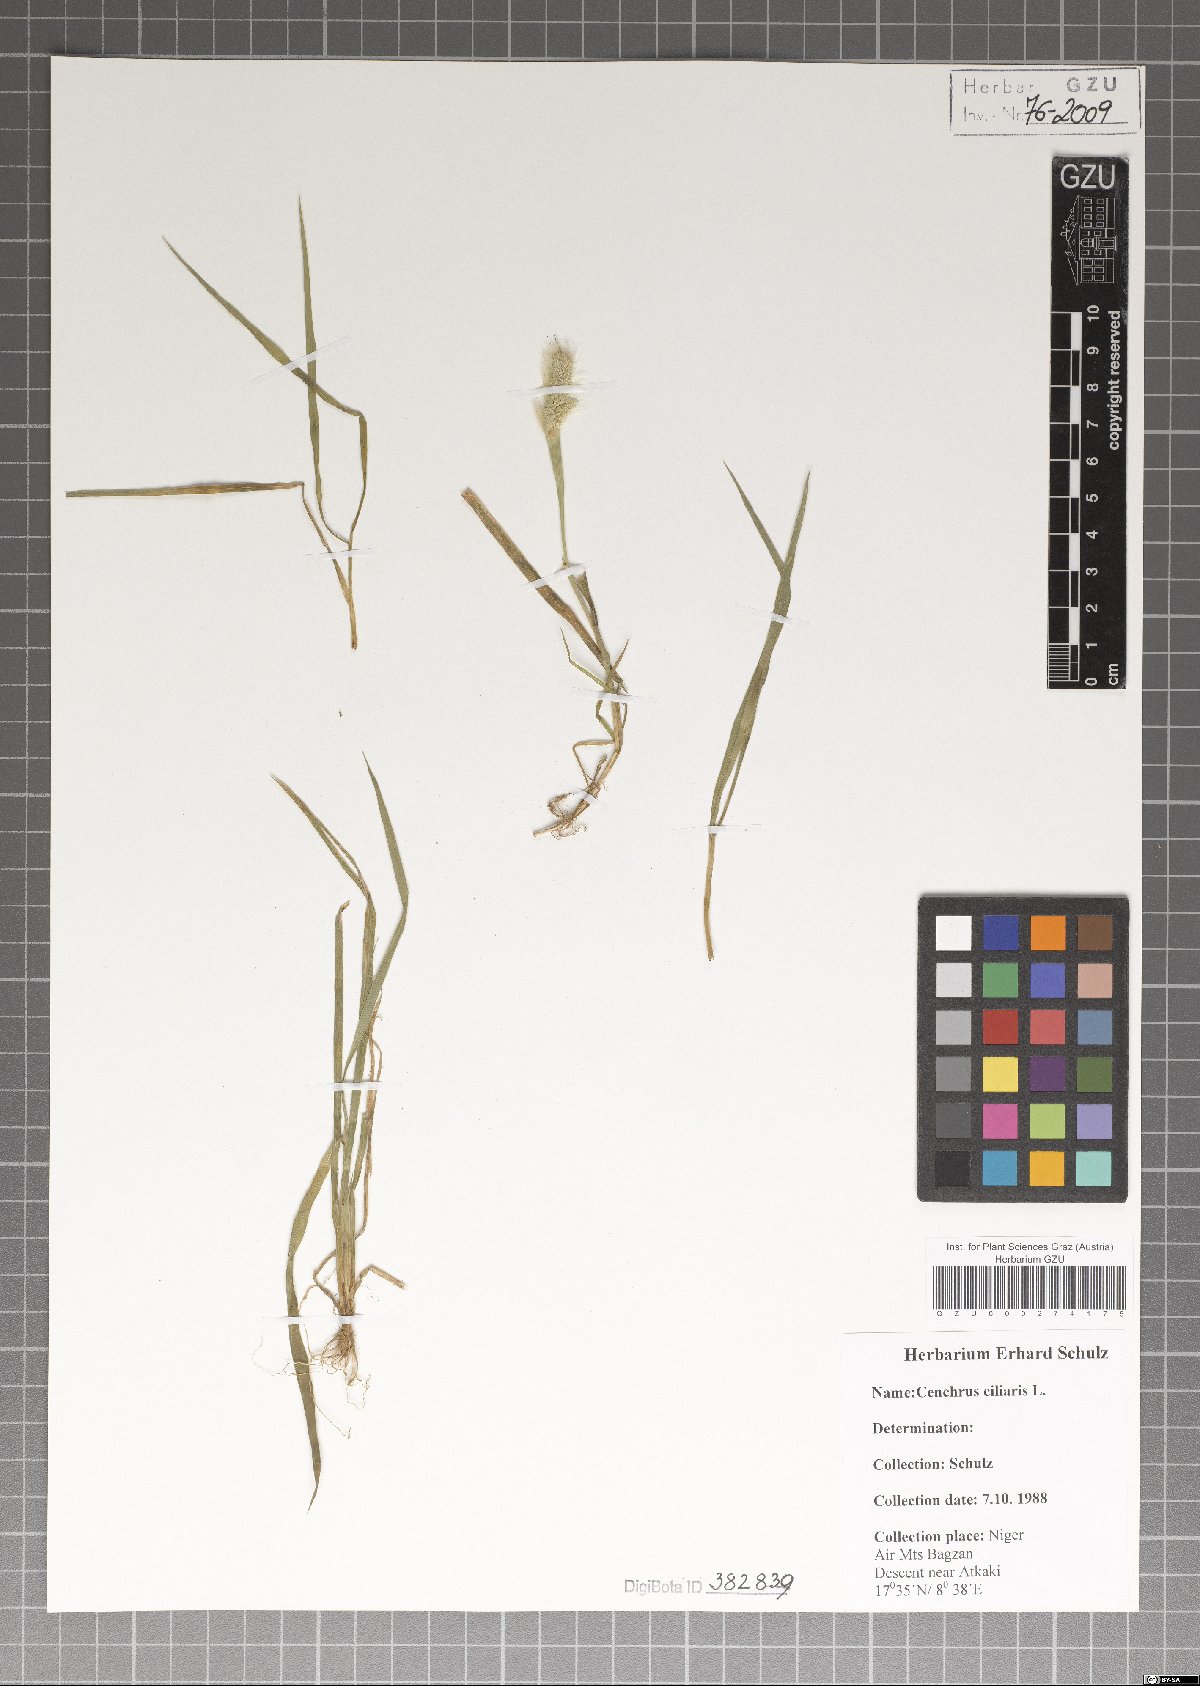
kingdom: Plantae
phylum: Tracheophyta
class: Liliopsida
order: Poales
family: Poaceae
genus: Cenchrus
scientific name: Cenchrus ciliaris
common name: Buffelgrass
